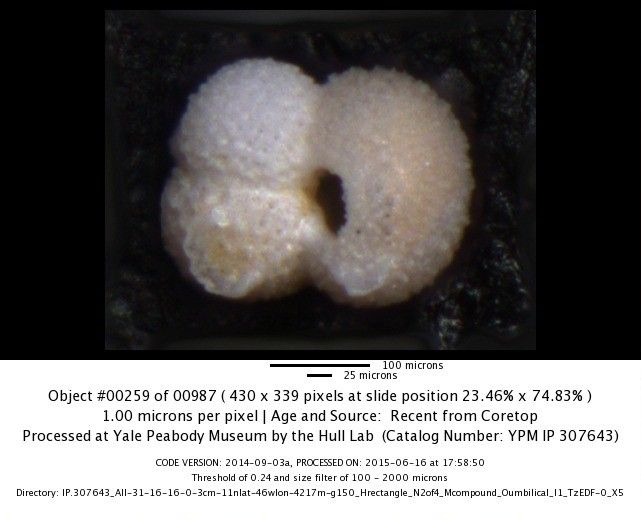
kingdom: Chromista
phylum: Foraminifera
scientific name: Foraminifera
